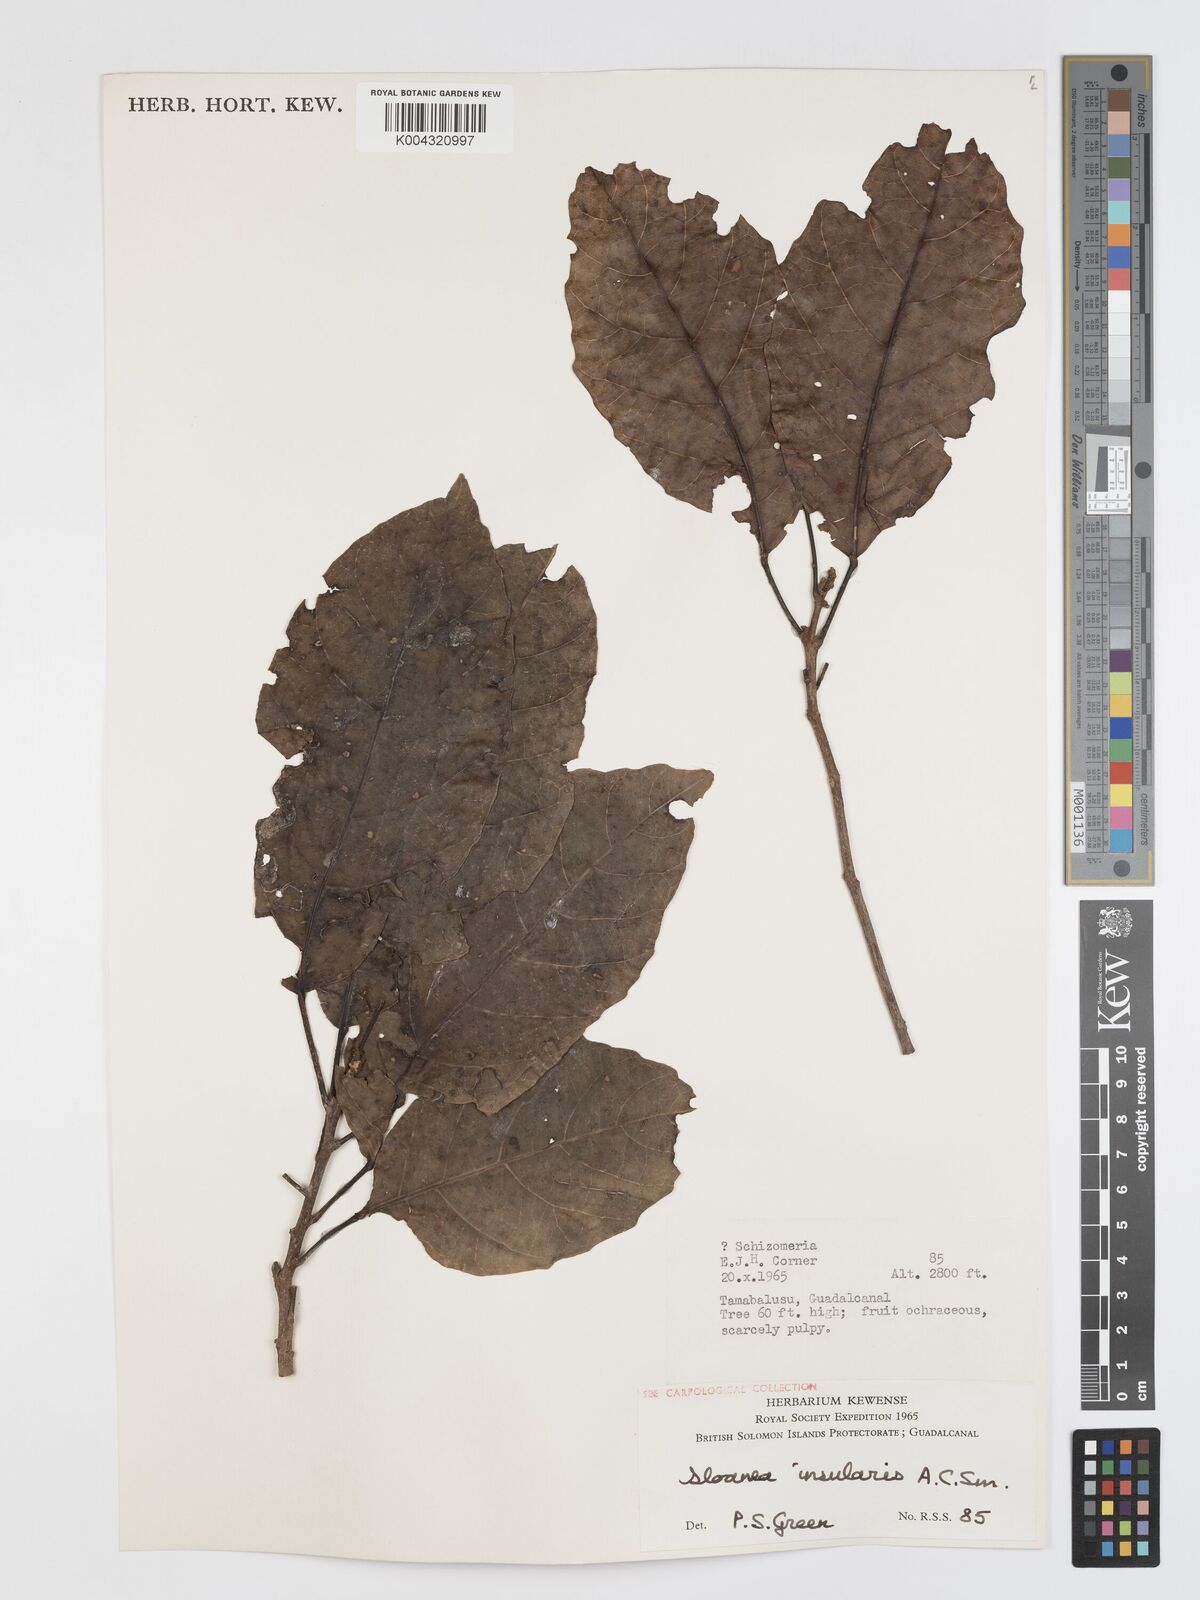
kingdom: Plantae
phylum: Tracheophyta
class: Magnoliopsida
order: Oxalidales
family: Elaeocarpaceae
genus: Sloanea
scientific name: Sloanea insularis
